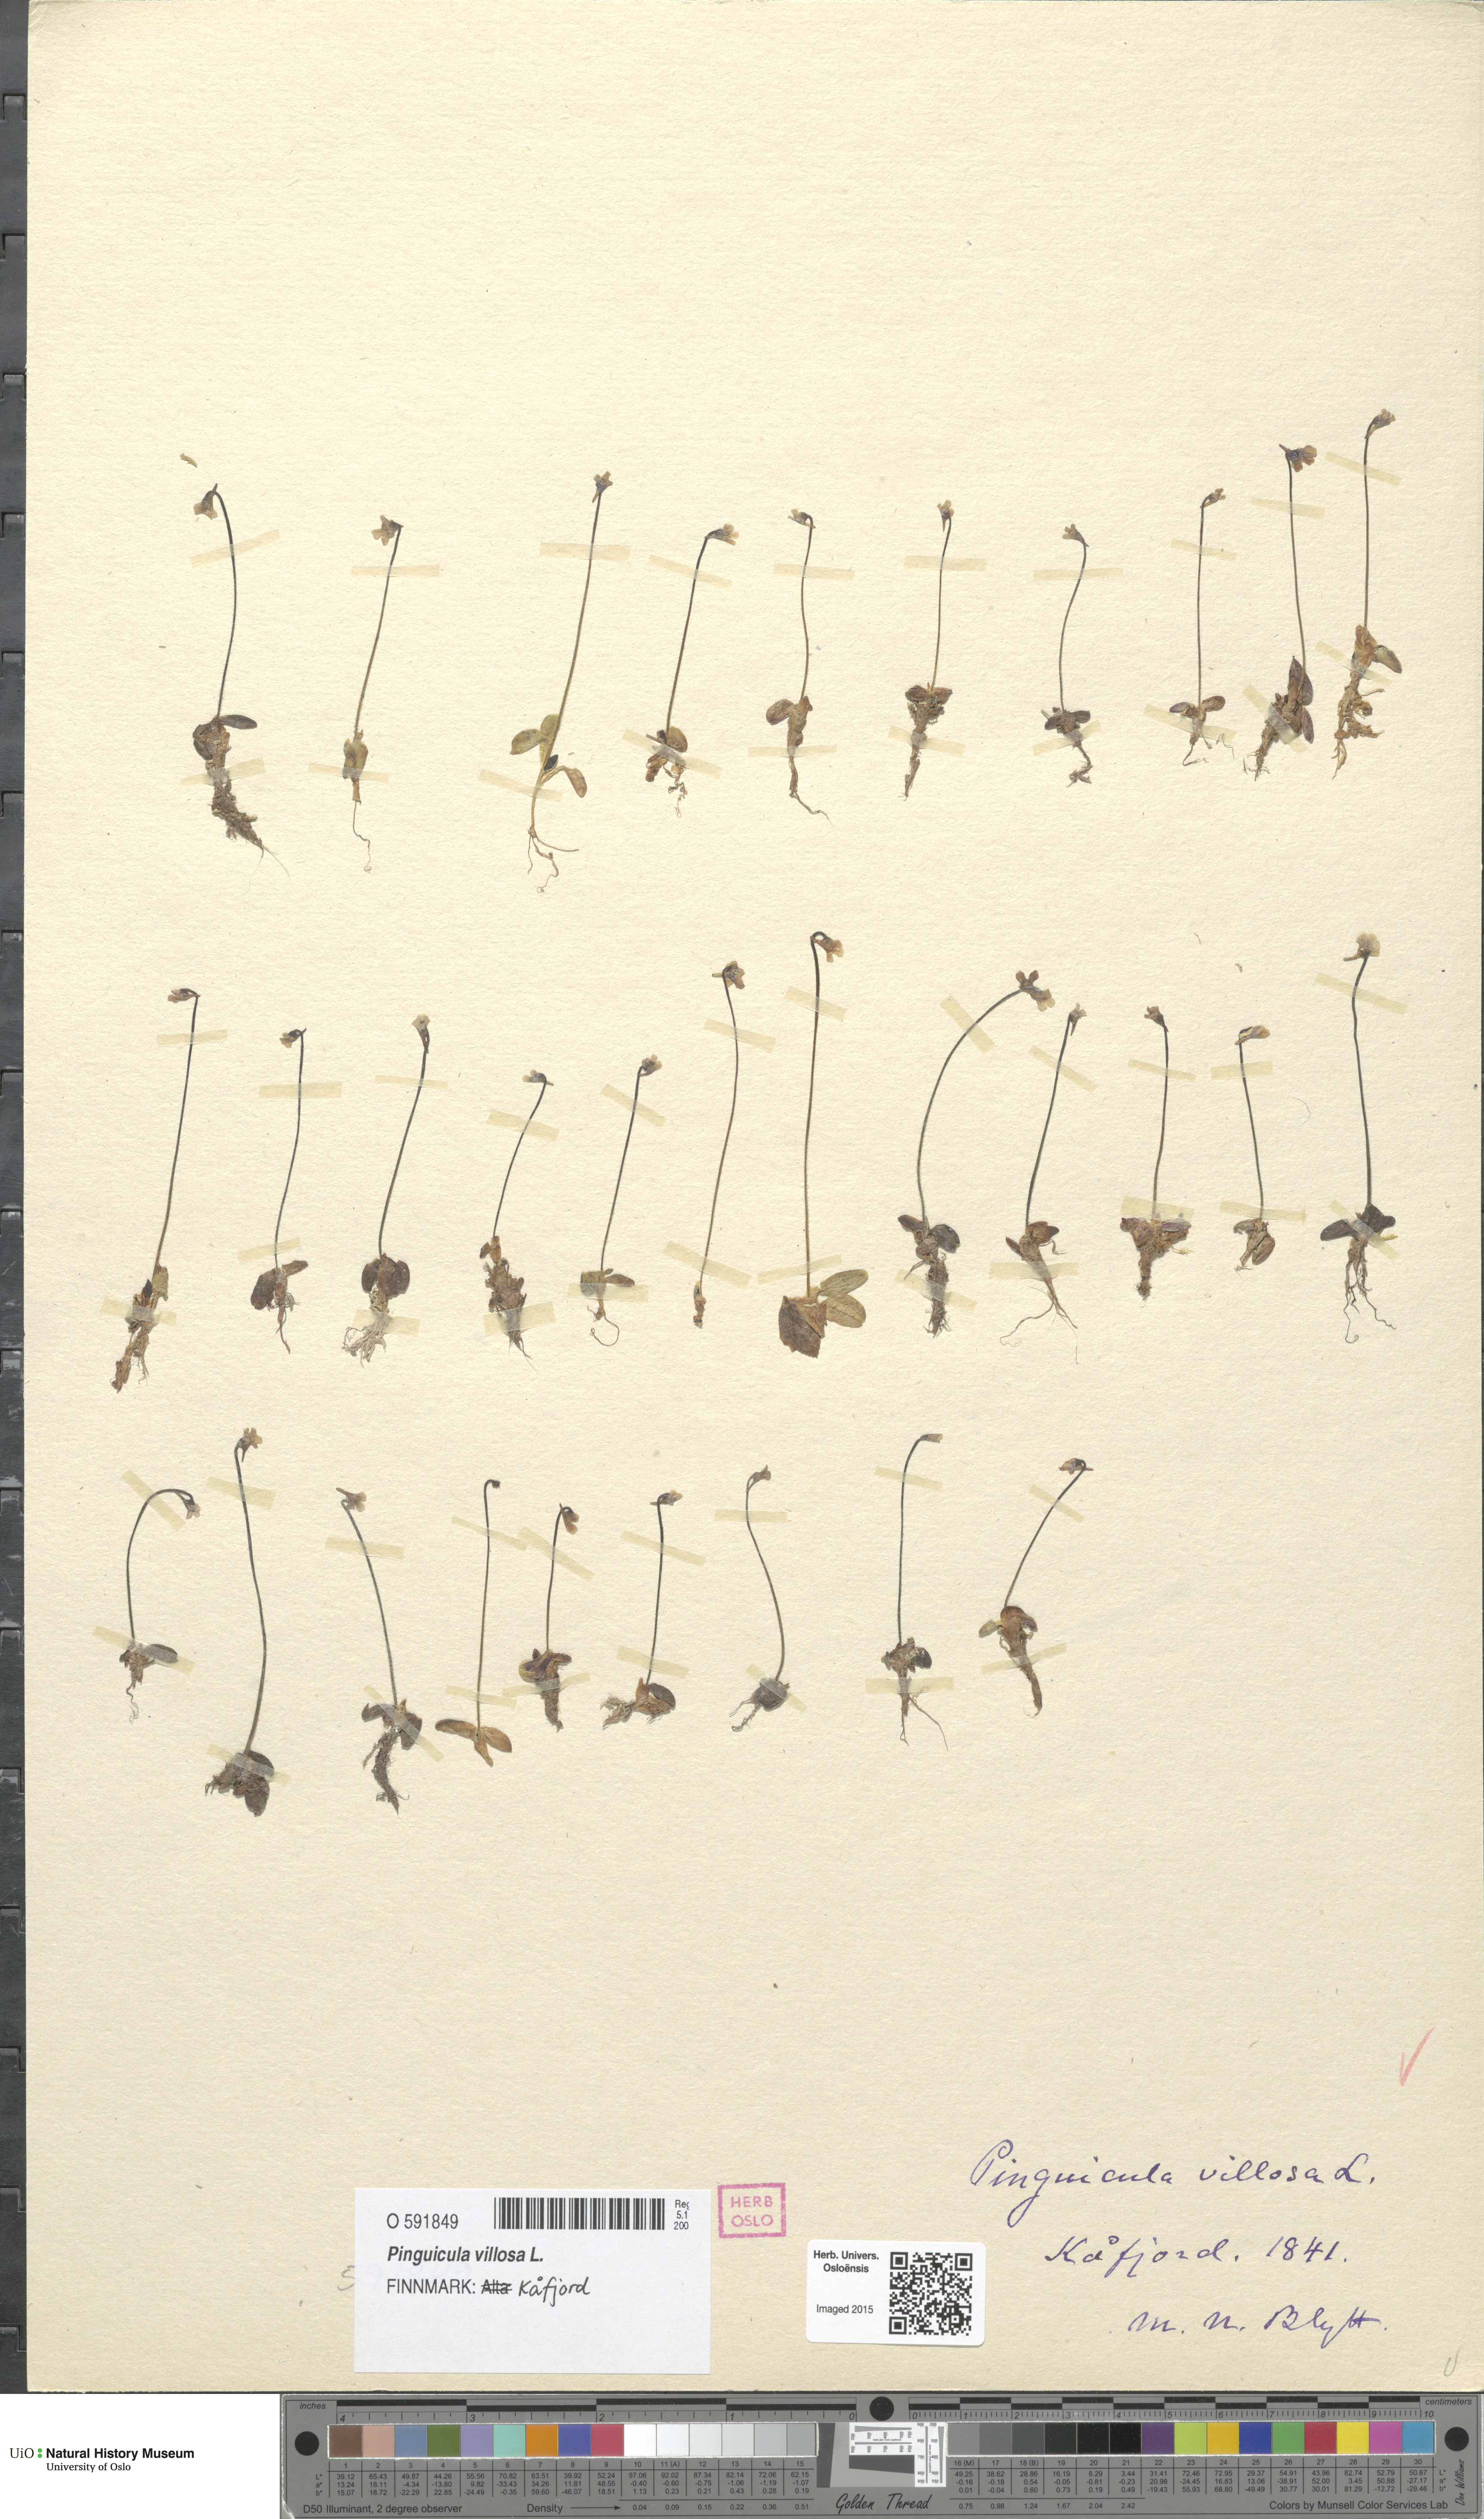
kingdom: Plantae
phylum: Tracheophyta
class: Magnoliopsida
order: Lamiales
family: Lentibulariaceae
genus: Pinguicula
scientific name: Pinguicula villosa
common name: Hairy butterwort
